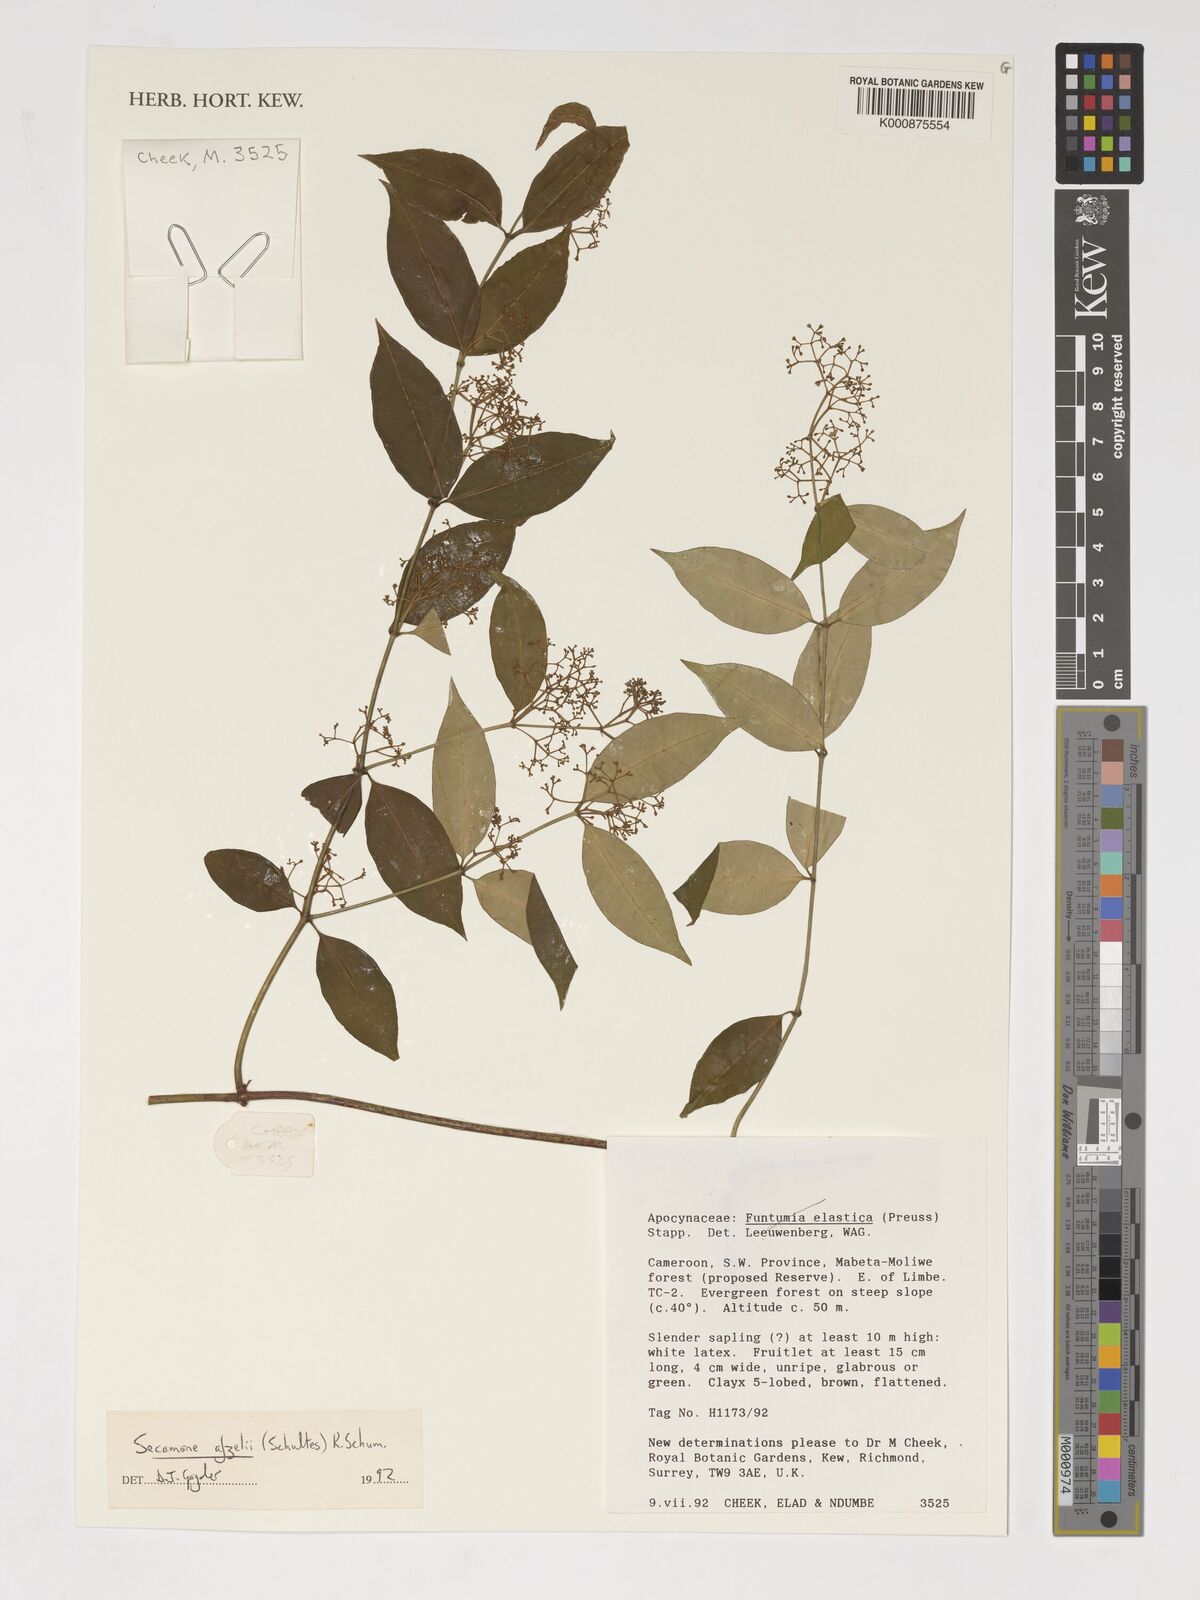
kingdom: Plantae
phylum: Tracheophyta
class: Magnoliopsida
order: Gentianales
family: Apocynaceae
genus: Secamone
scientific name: Secamone afzelii
